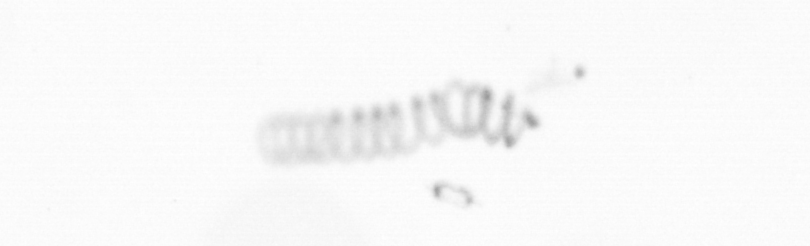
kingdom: Chromista
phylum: Ochrophyta
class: Bacillariophyceae
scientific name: Bacillariophyceae
